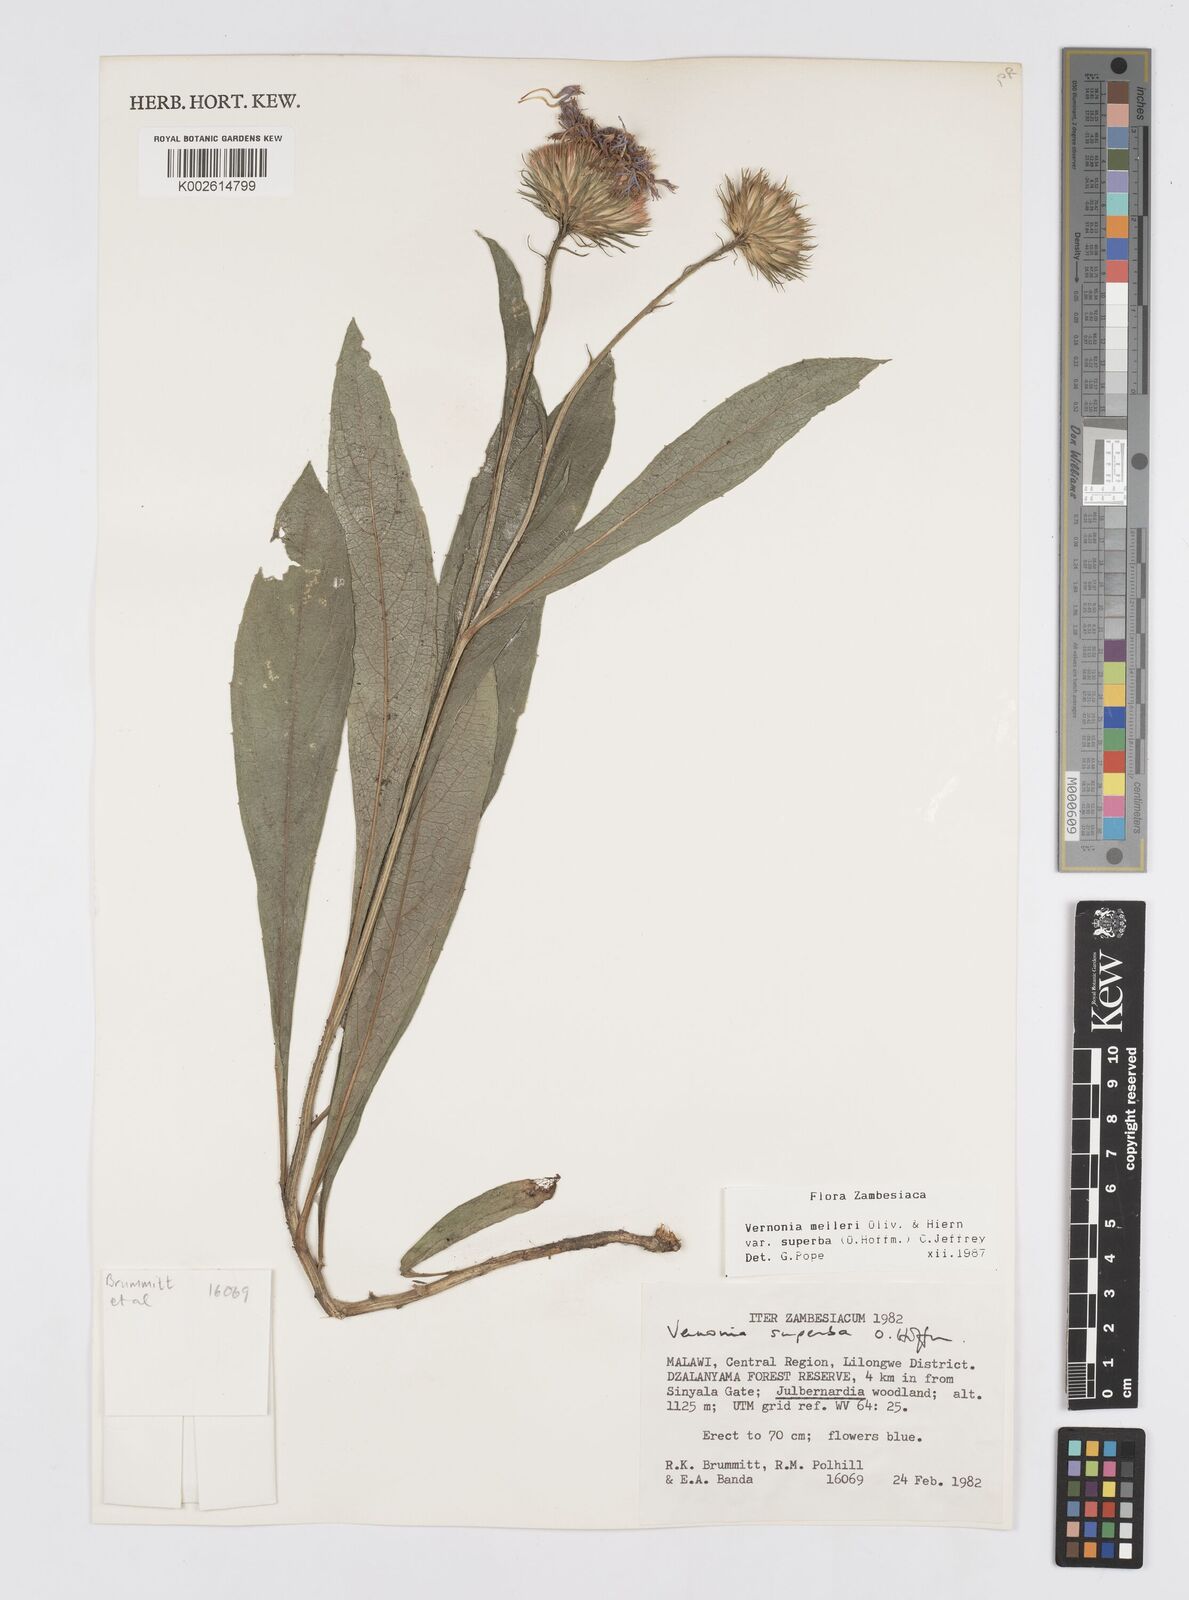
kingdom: Plantae
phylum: Tracheophyta
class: Magnoliopsida
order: Asterales
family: Asteraceae
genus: Linzia
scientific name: Linzia melleri
